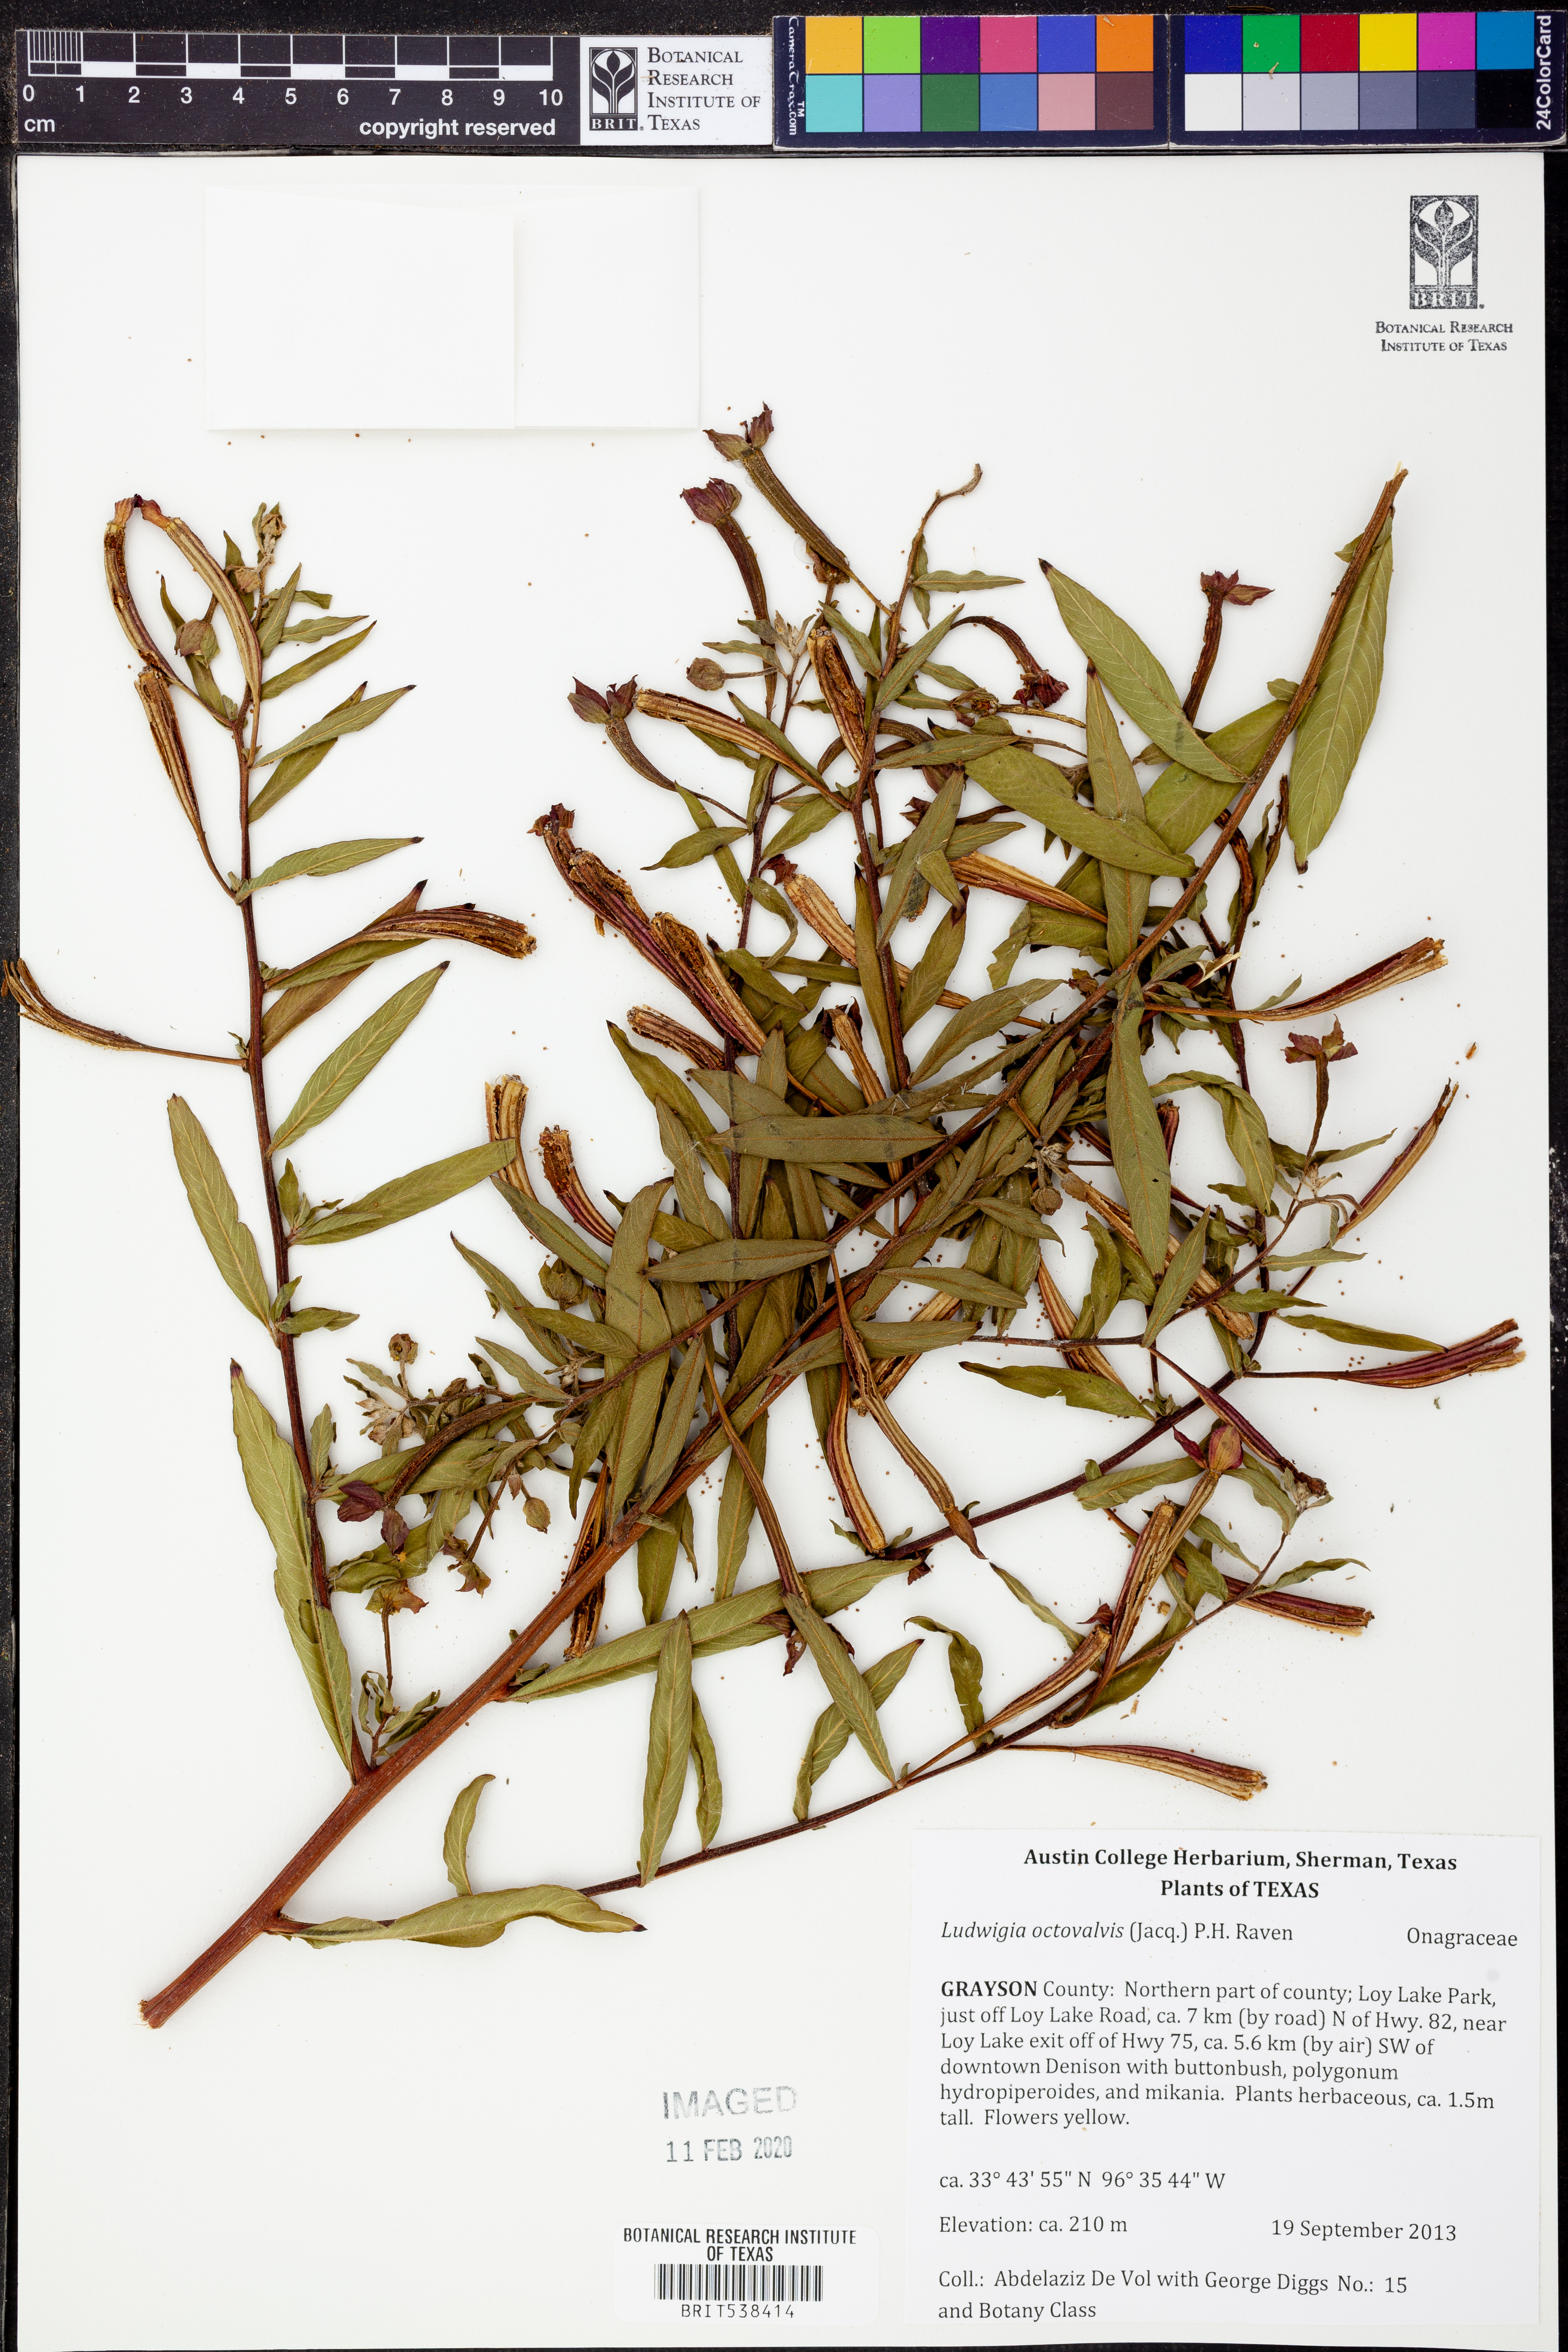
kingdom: Plantae
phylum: Tracheophyta
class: Magnoliopsida
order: Myrtales
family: Onagraceae
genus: Ludwigia
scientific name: Ludwigia octovalvis
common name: Water-primrose
